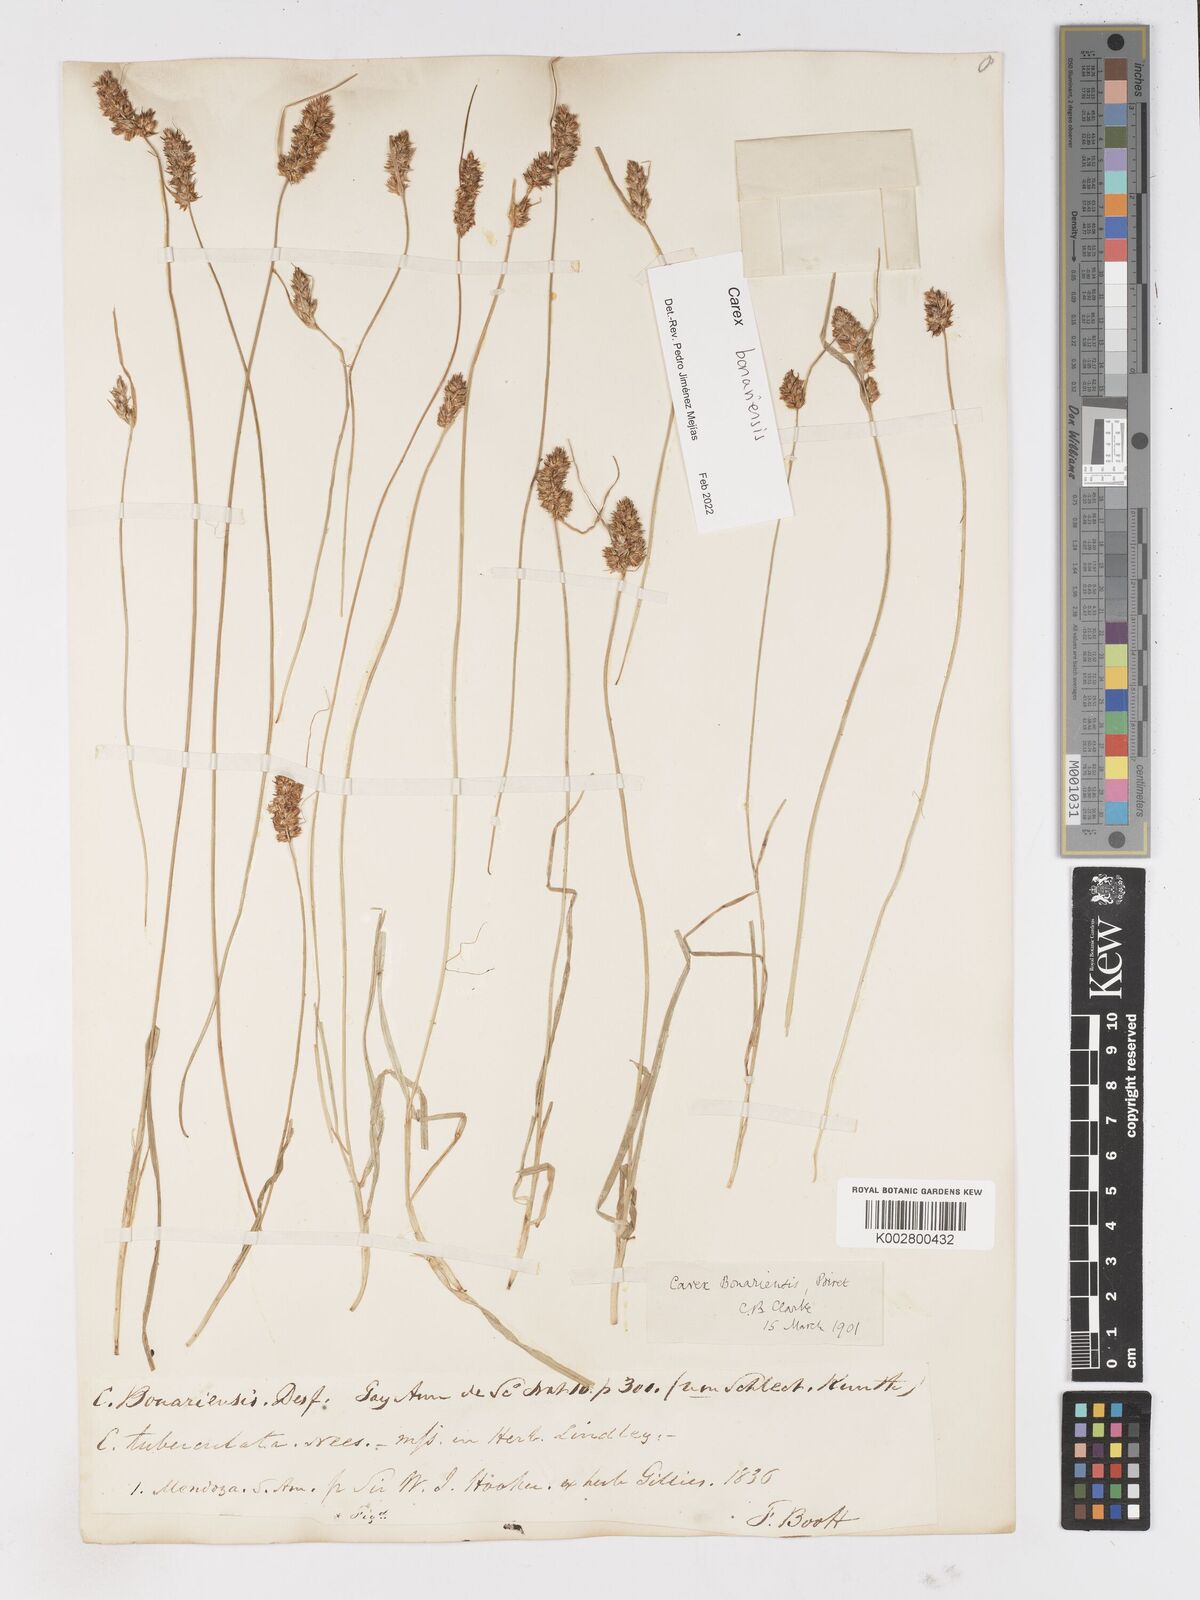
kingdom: Plantae
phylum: Tracheophyta
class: Liliopsida
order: Poales
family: Cyperaceae
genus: Carex
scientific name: Carex bonariensis
